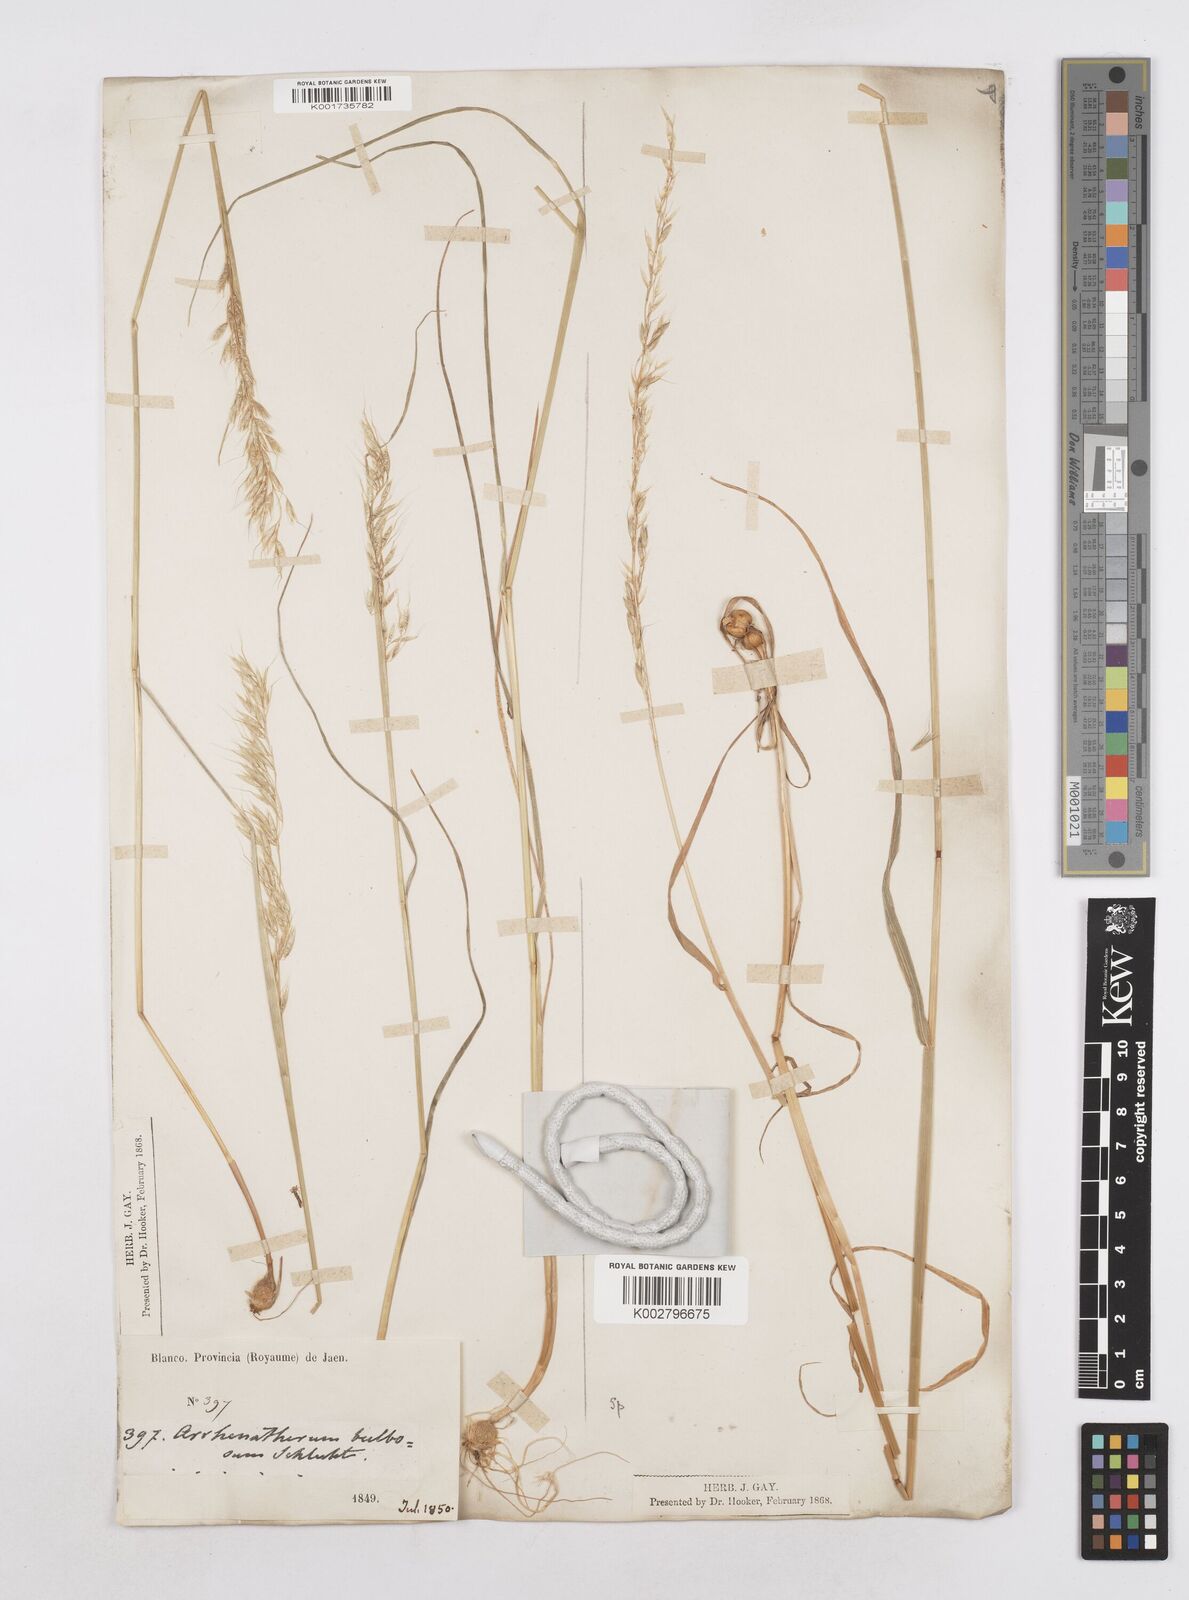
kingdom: Plantae
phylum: Tracheophyta
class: Liliopsida
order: Poales
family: Poaceae
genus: Arrhenatherum
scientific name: Arrhenatherum elatius
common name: Tall oatgrass
